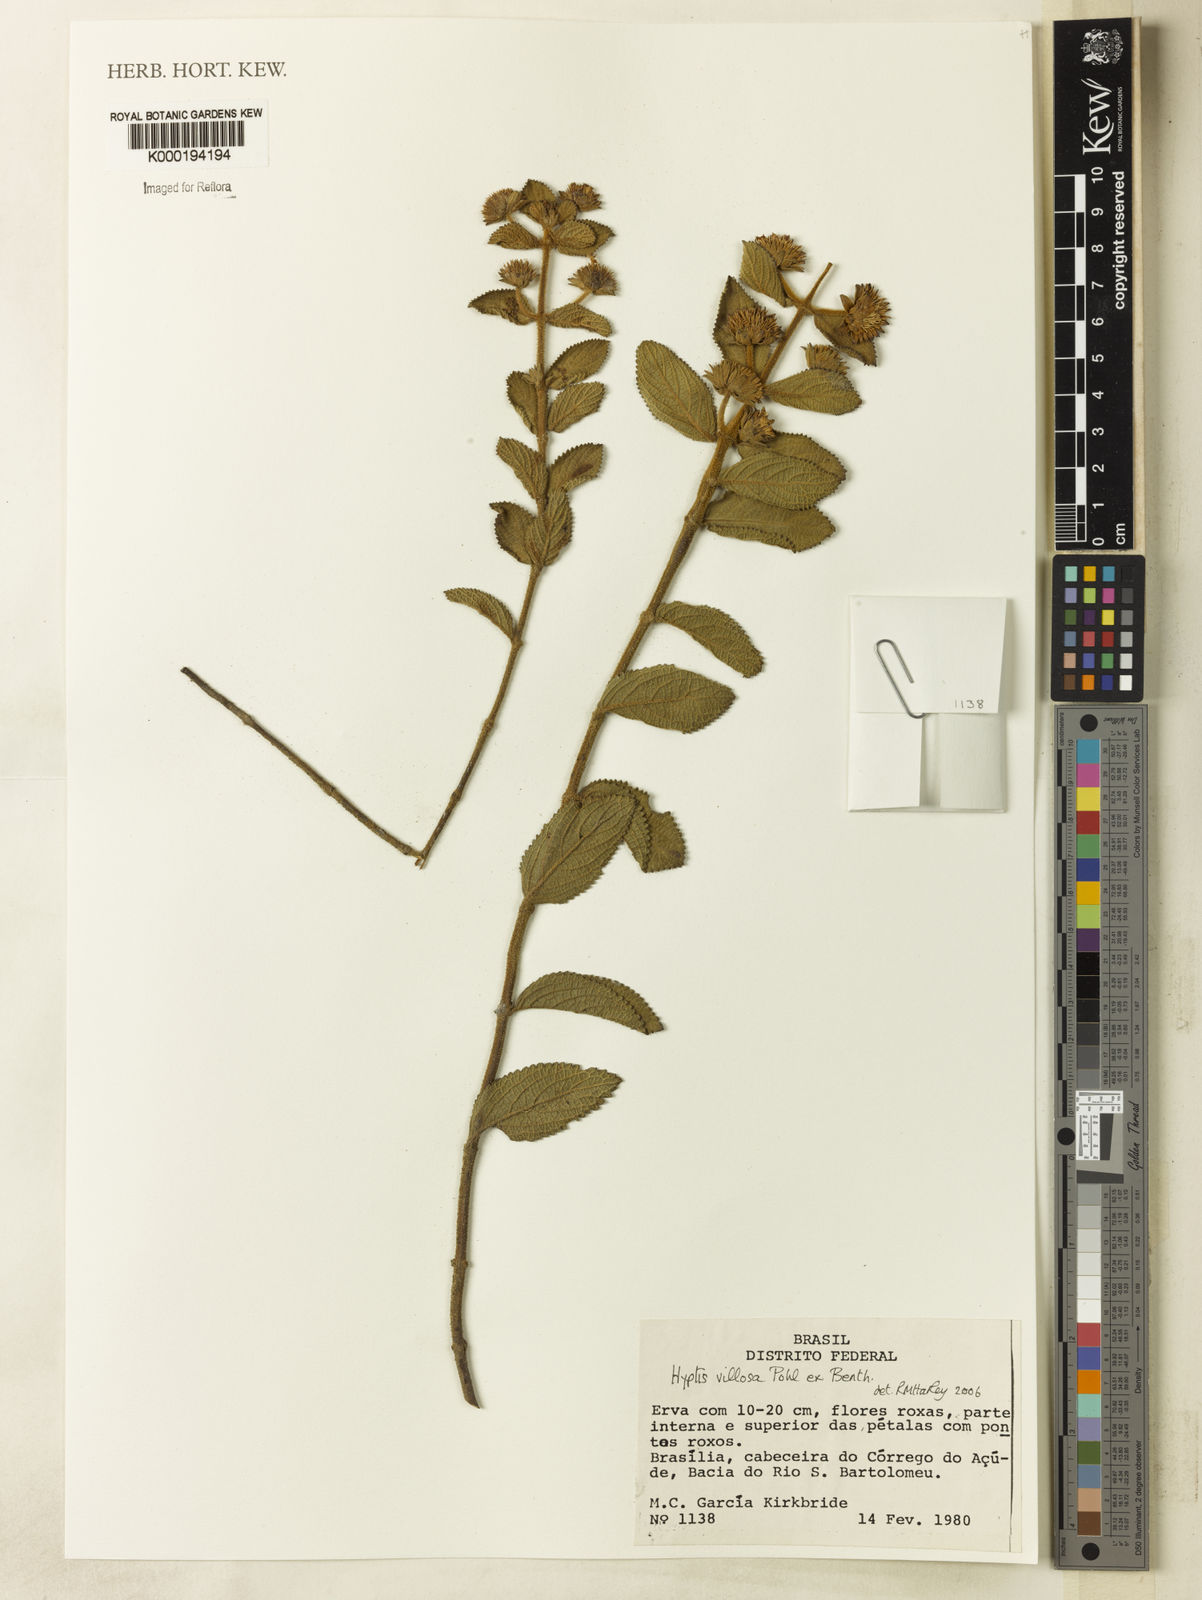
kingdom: Plantae
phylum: Tracheophyta
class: Magnoliopsida
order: Lamiales
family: Lamiaceae
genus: Hyptis
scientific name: Hyptis villosa
